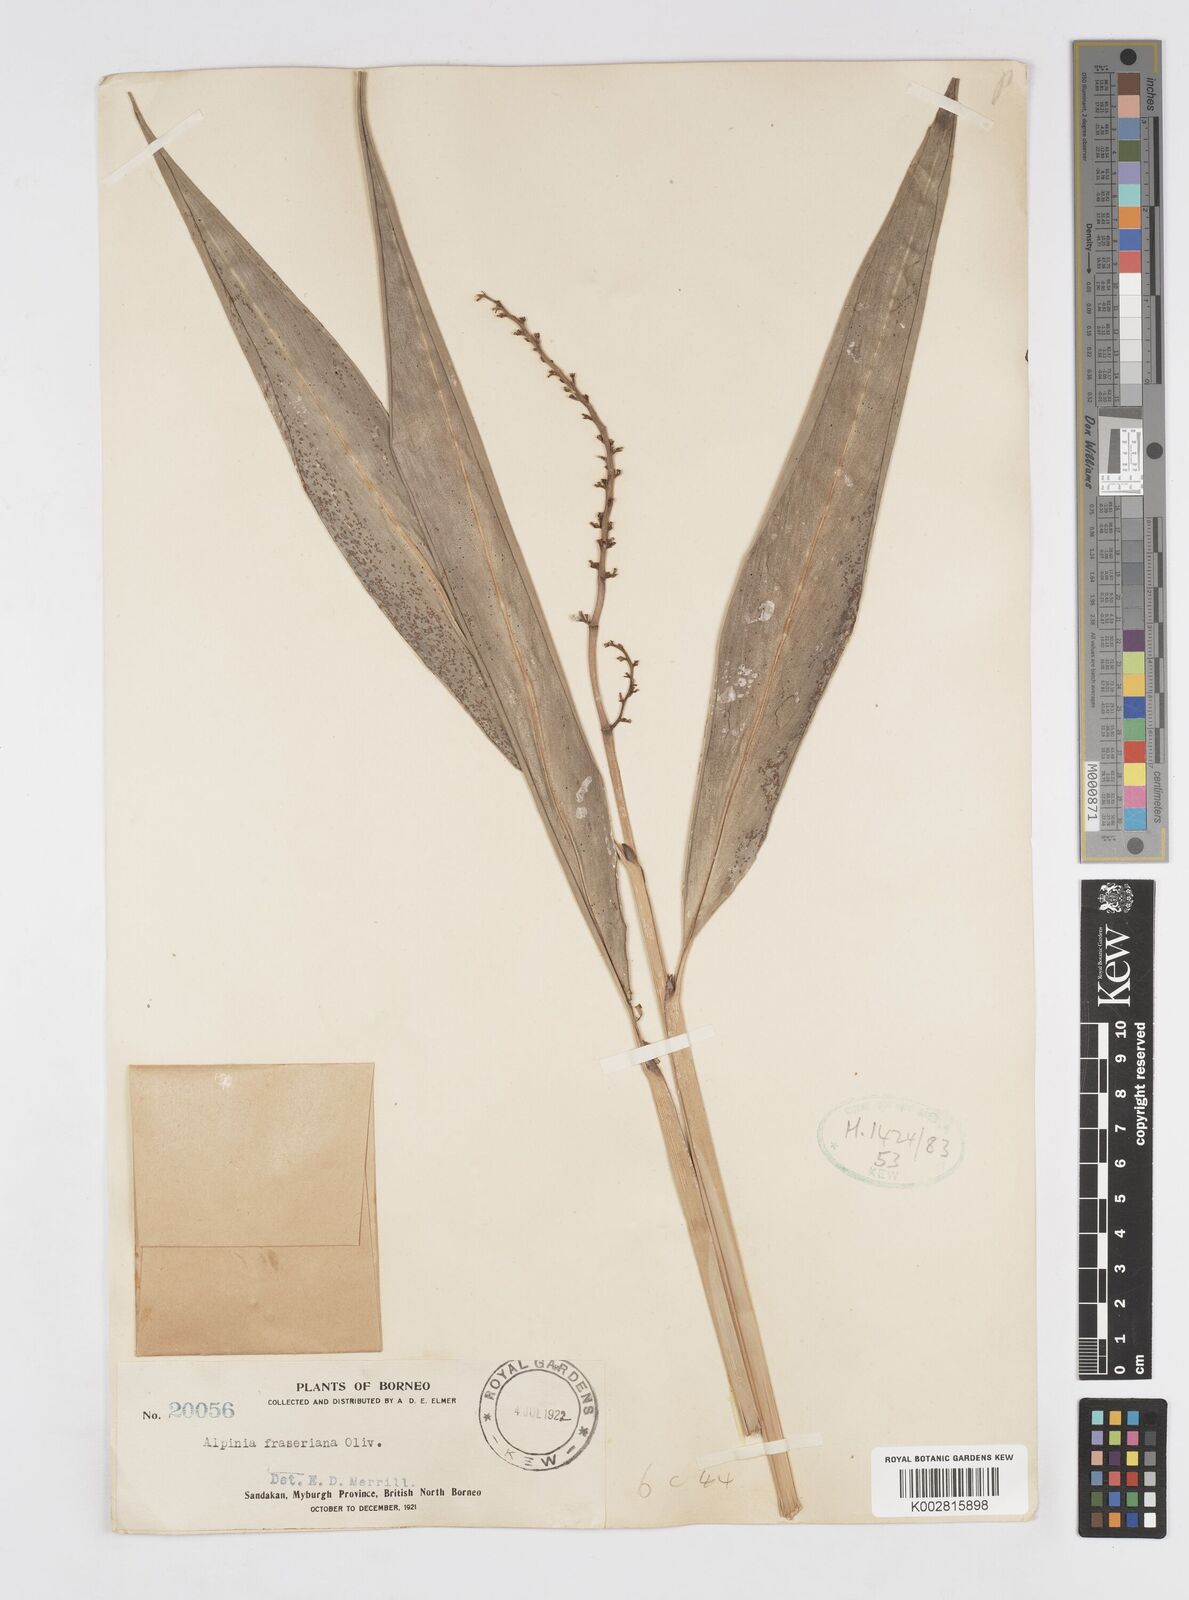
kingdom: Plantae
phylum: Tracheophyta
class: Liliopsida
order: Zingiberales
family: Zingiberaceae
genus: Alpinia
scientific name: Alpinia aquatica
